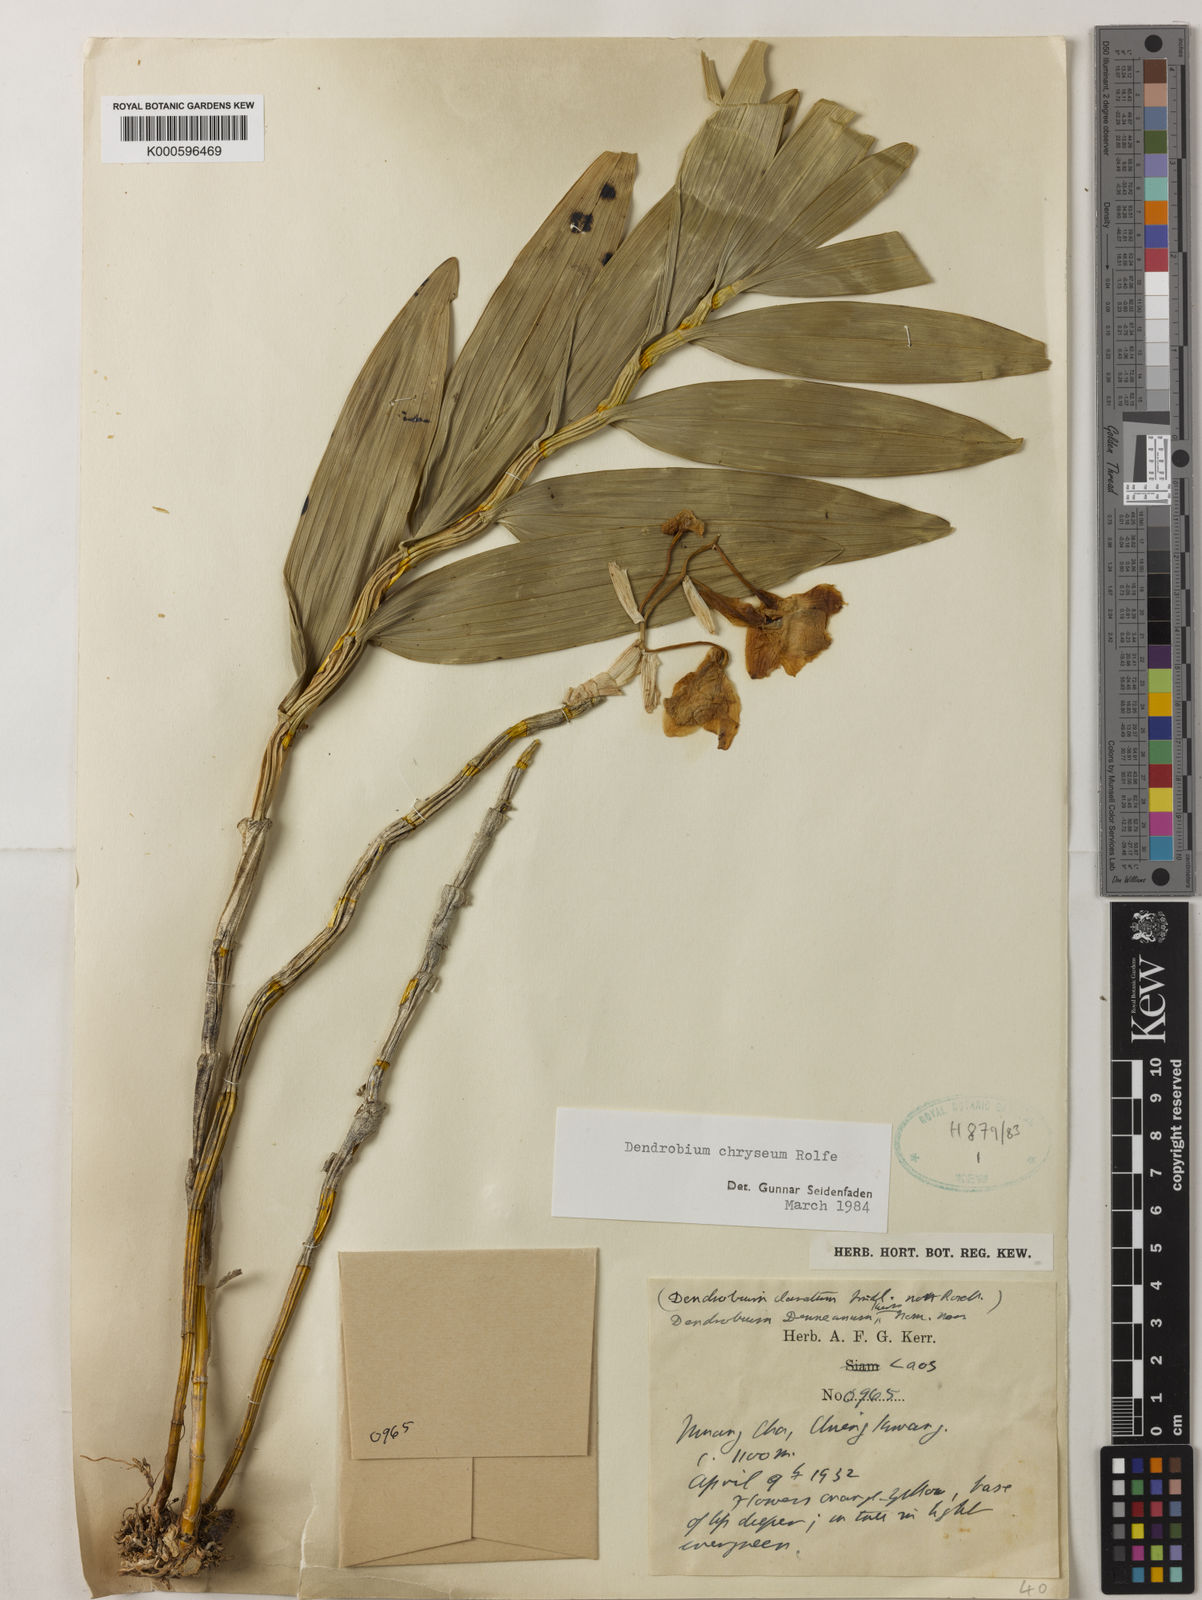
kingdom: Plantae
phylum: Tracheophyta
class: Liliopsida
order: Asparagales
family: Orchidaceae
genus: Dendrobium
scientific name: Dendrobium chryseum
